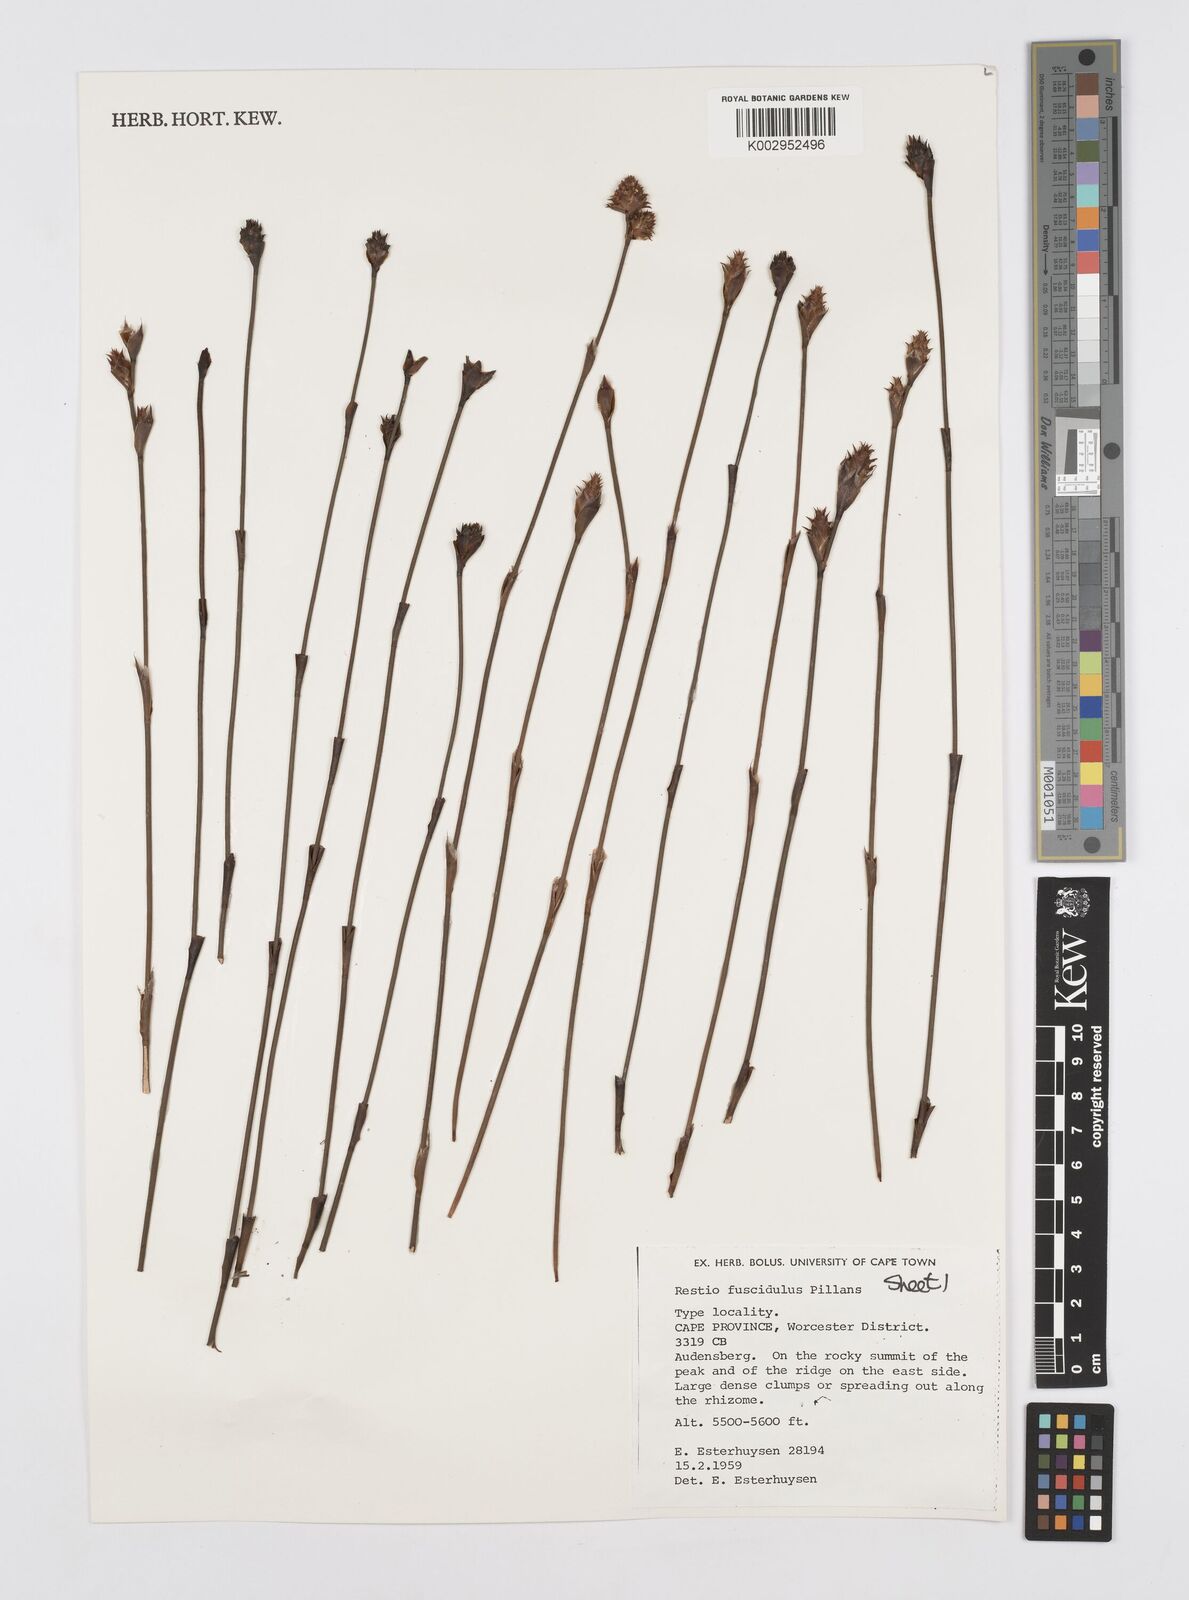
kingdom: Plantae
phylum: Tracheophyta
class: Liliopsida
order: Poales
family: Restionaceae
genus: Restio
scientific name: Restio fuscidulus
